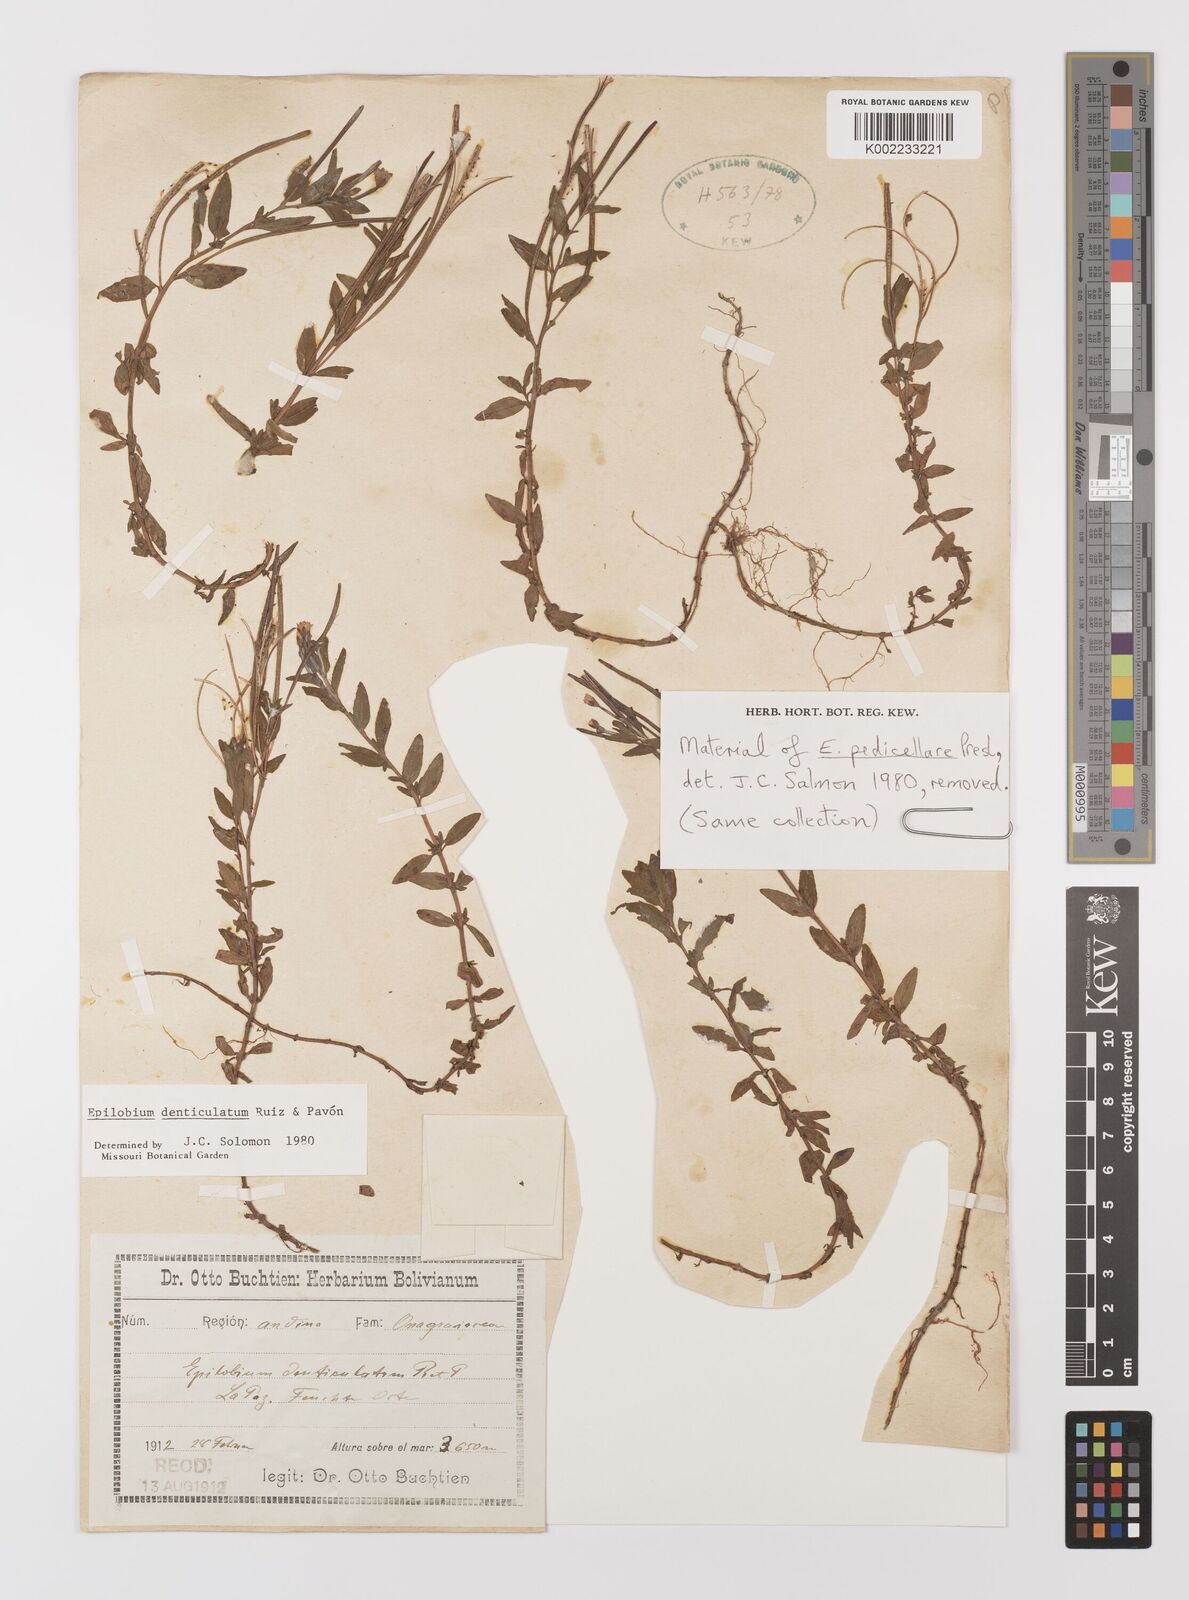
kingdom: Plantae
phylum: Tracheophyta
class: Magnoliopsida
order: Myrtales
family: Onagraceae
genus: Epilobium
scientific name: Epilobium denticulatum
